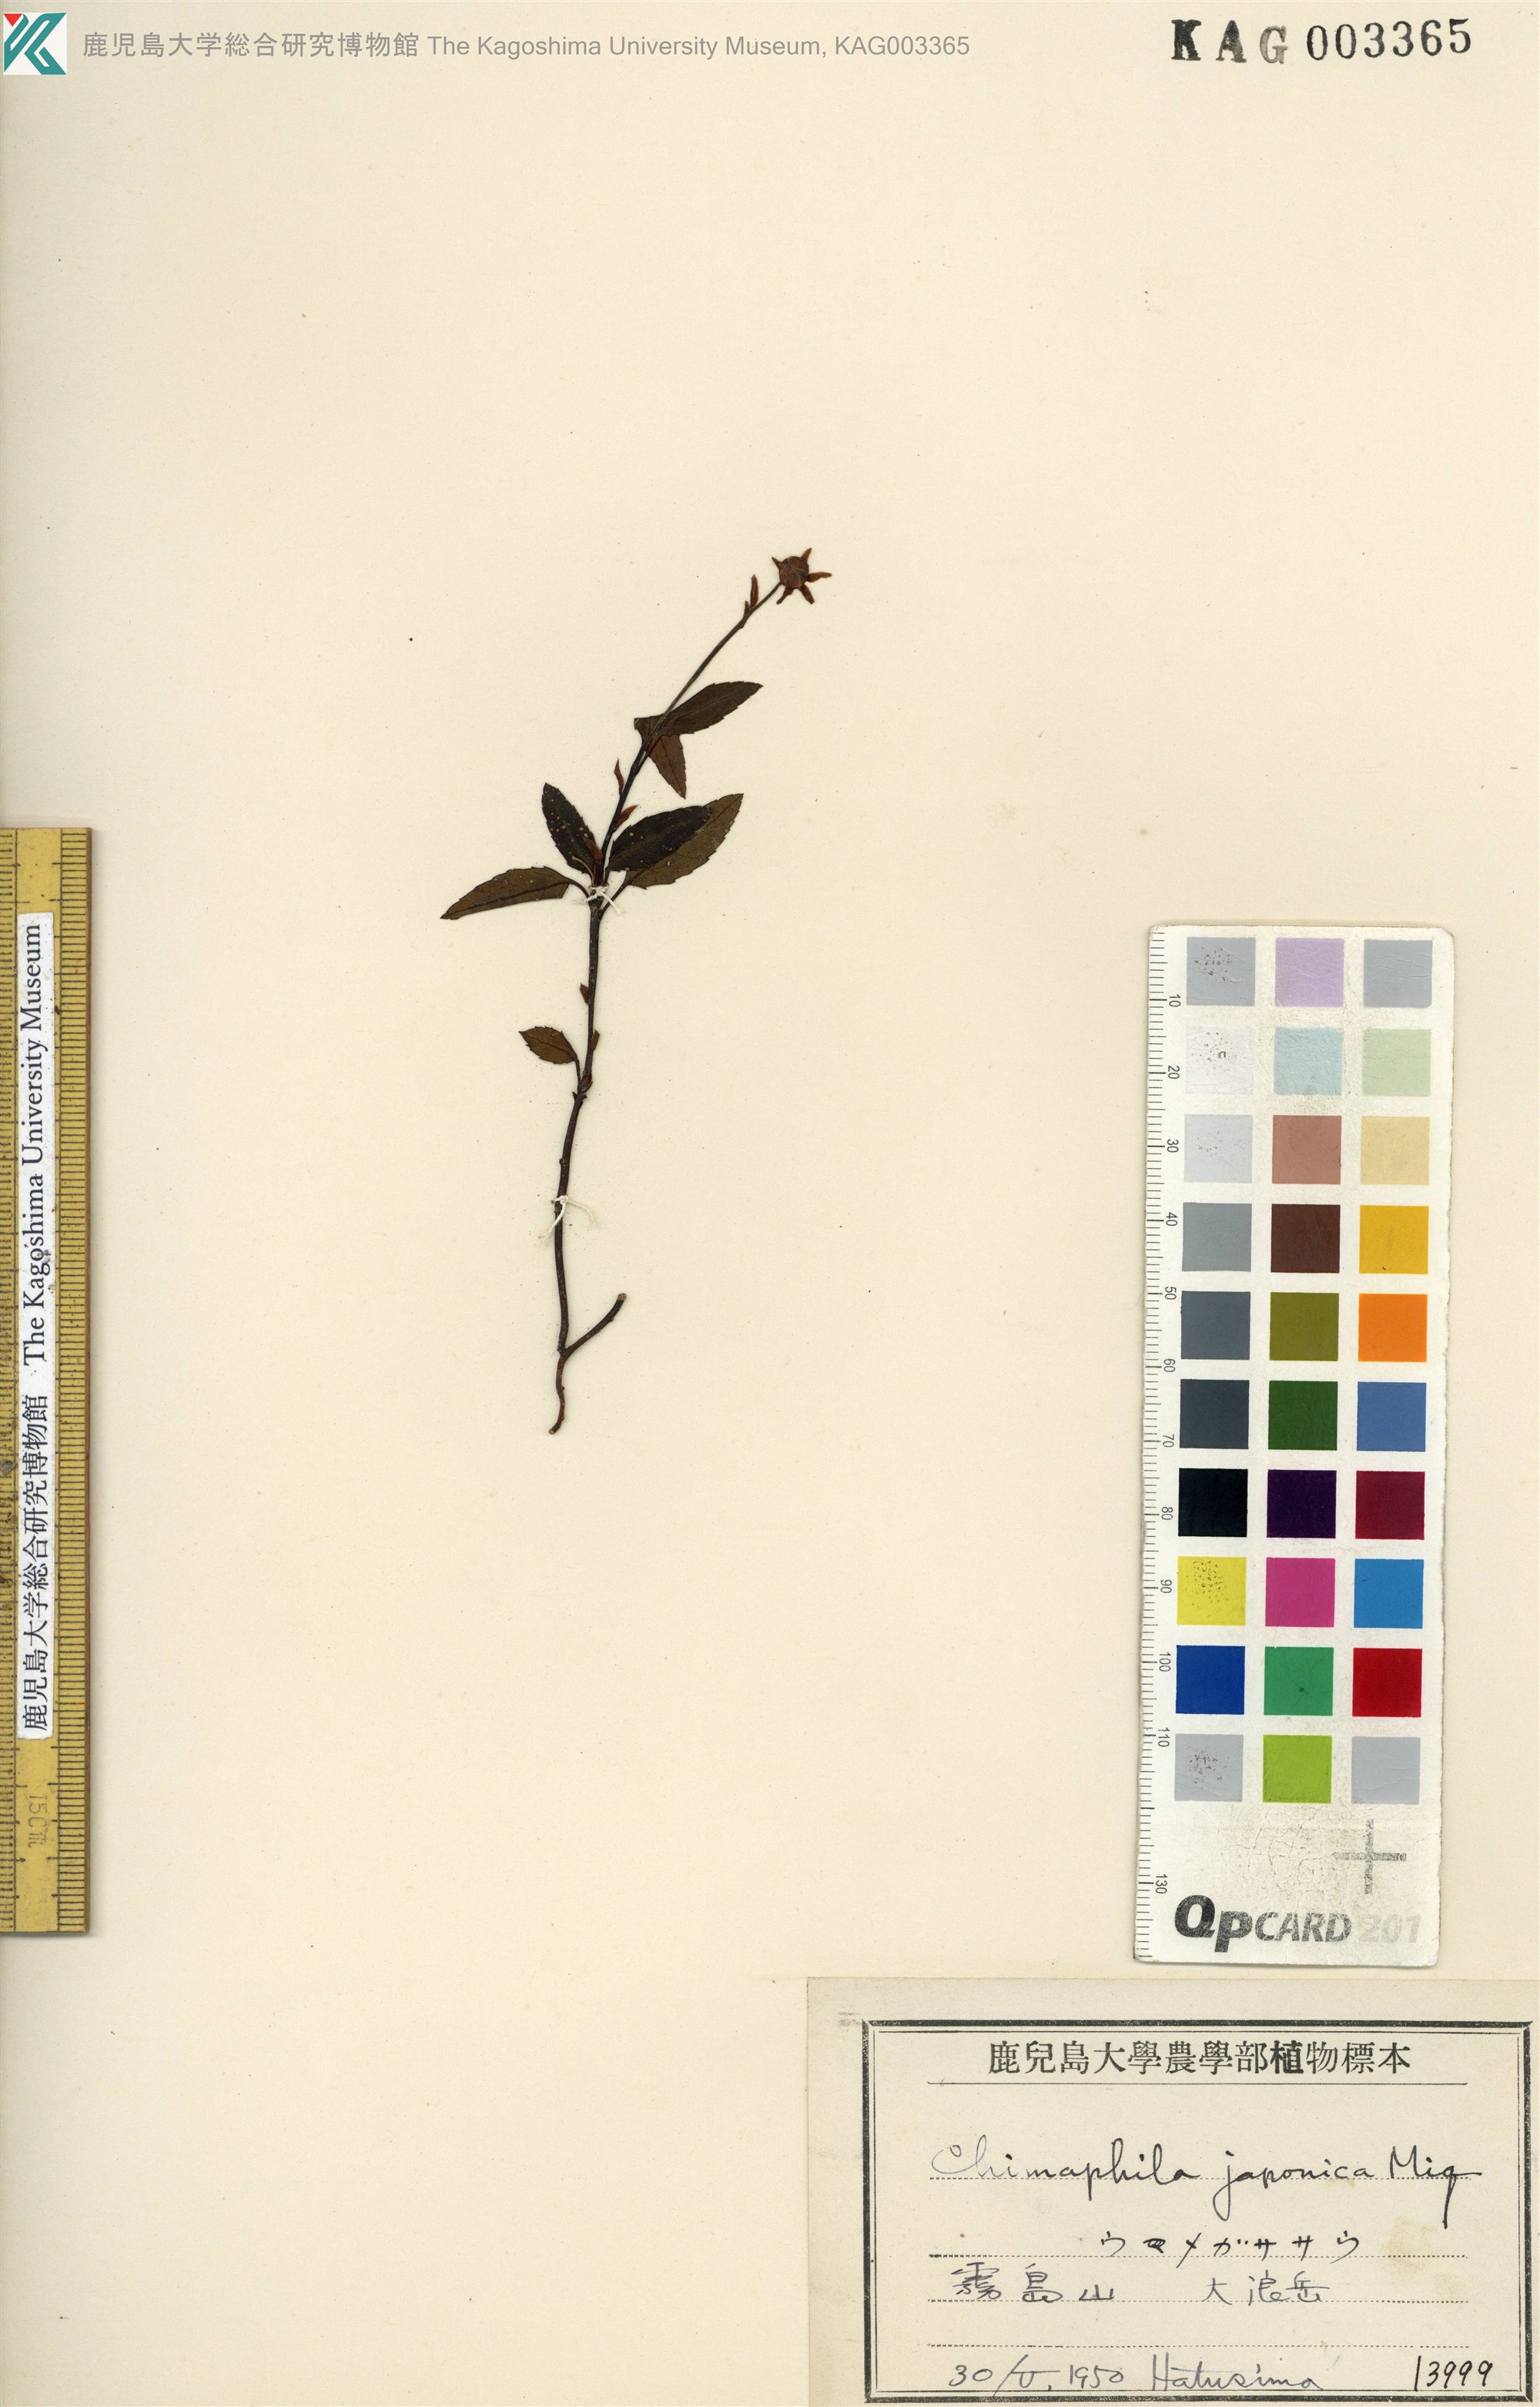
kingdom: Plantae
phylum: Tracheophyta
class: Magnoliopsida
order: Ericales
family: Ericaceae
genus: Chimaphila
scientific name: Chimaphila japonica
